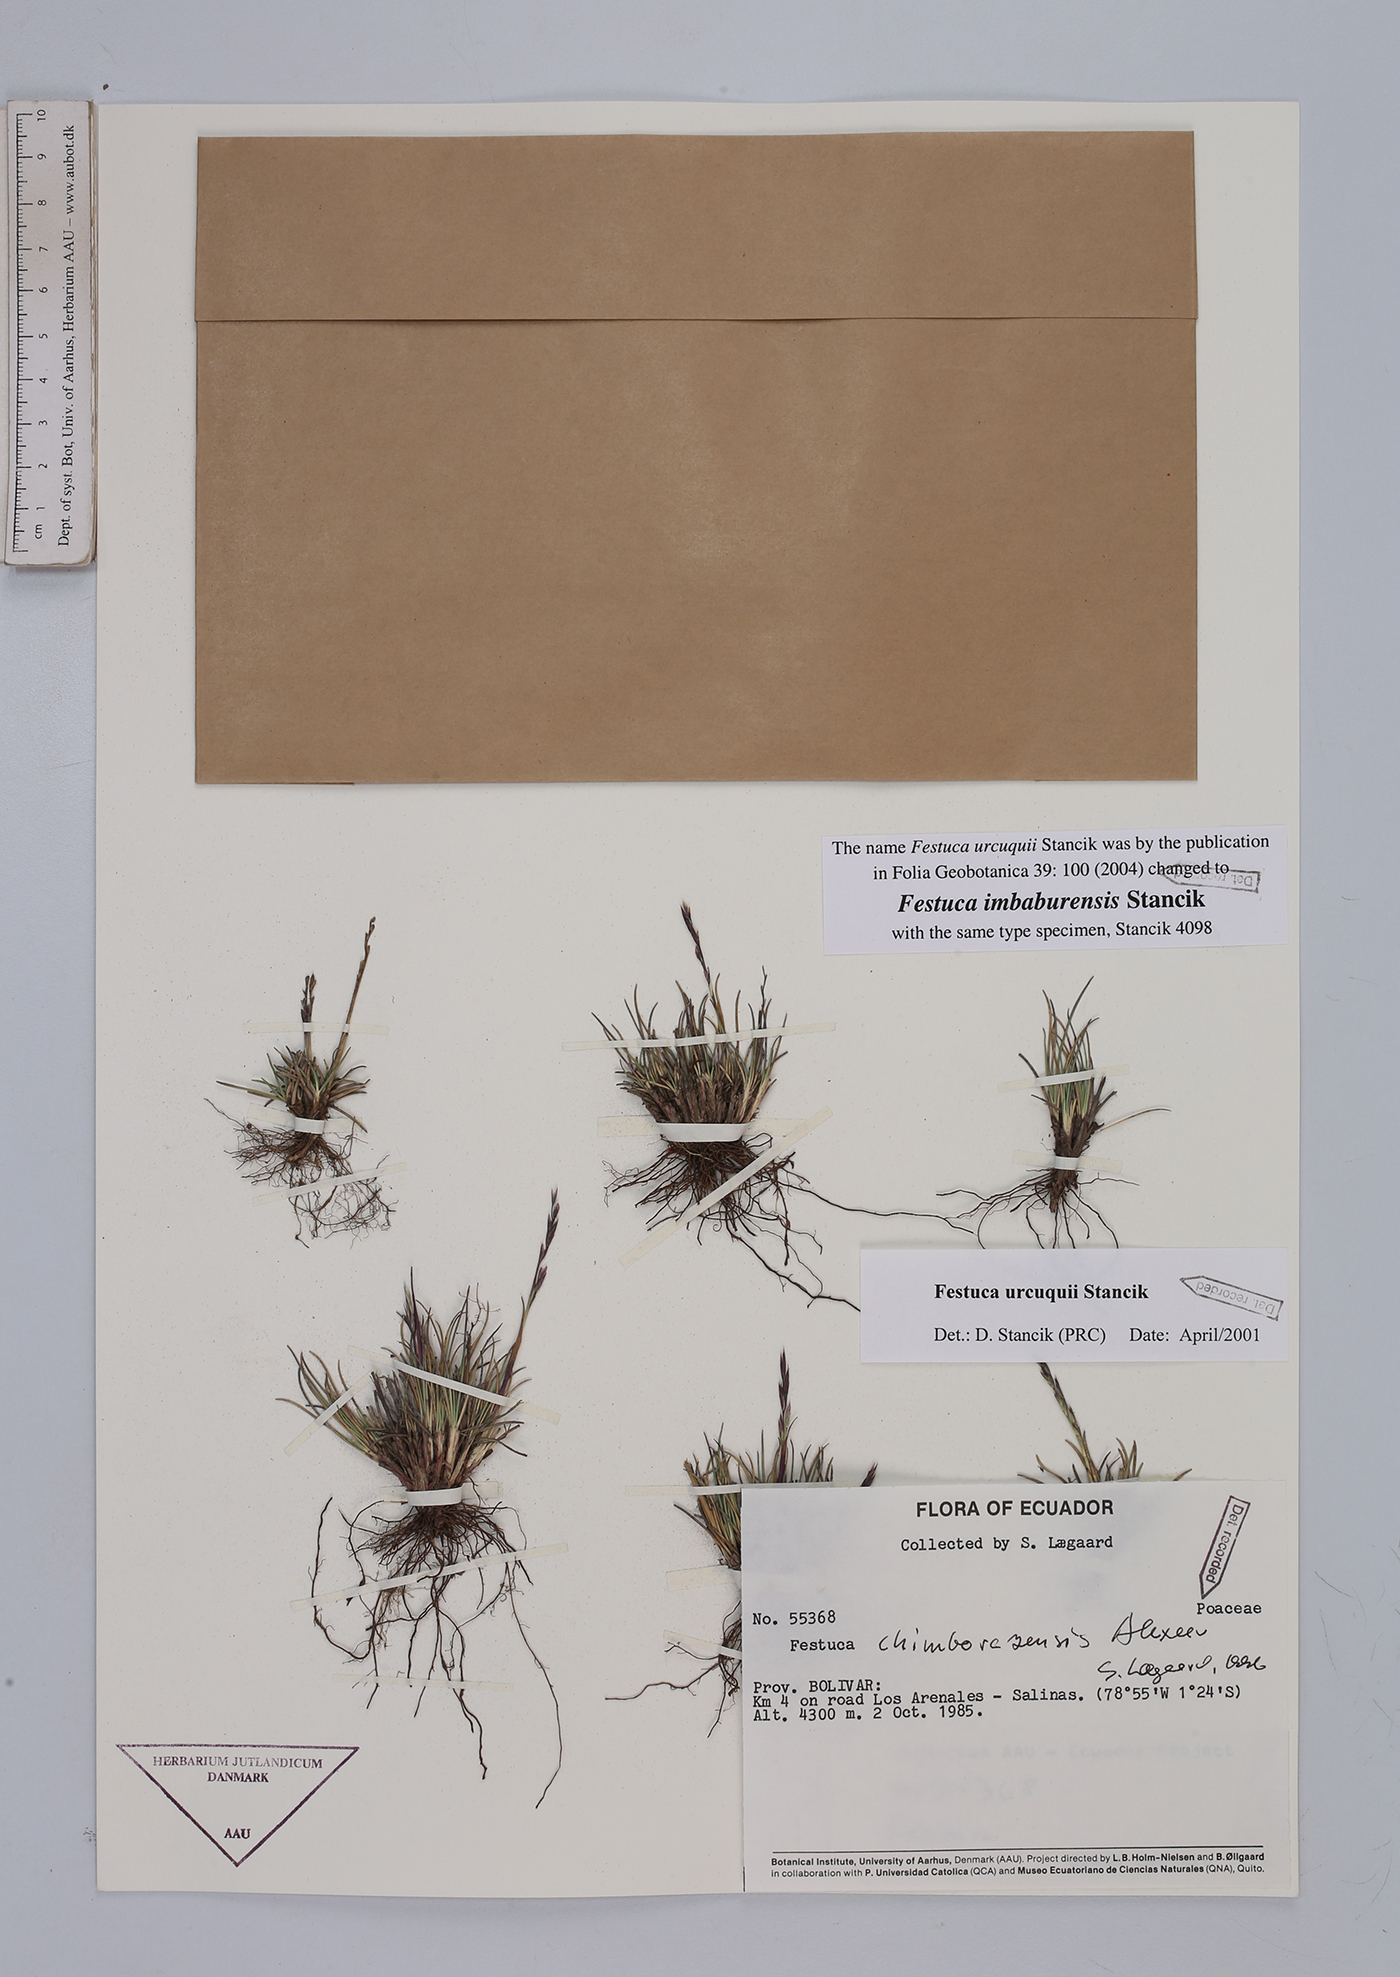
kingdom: Plantae
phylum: Tracheophyta
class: Liliopsida
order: Poales
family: Poaceae
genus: Festuca
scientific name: Festuca imbaburensis
